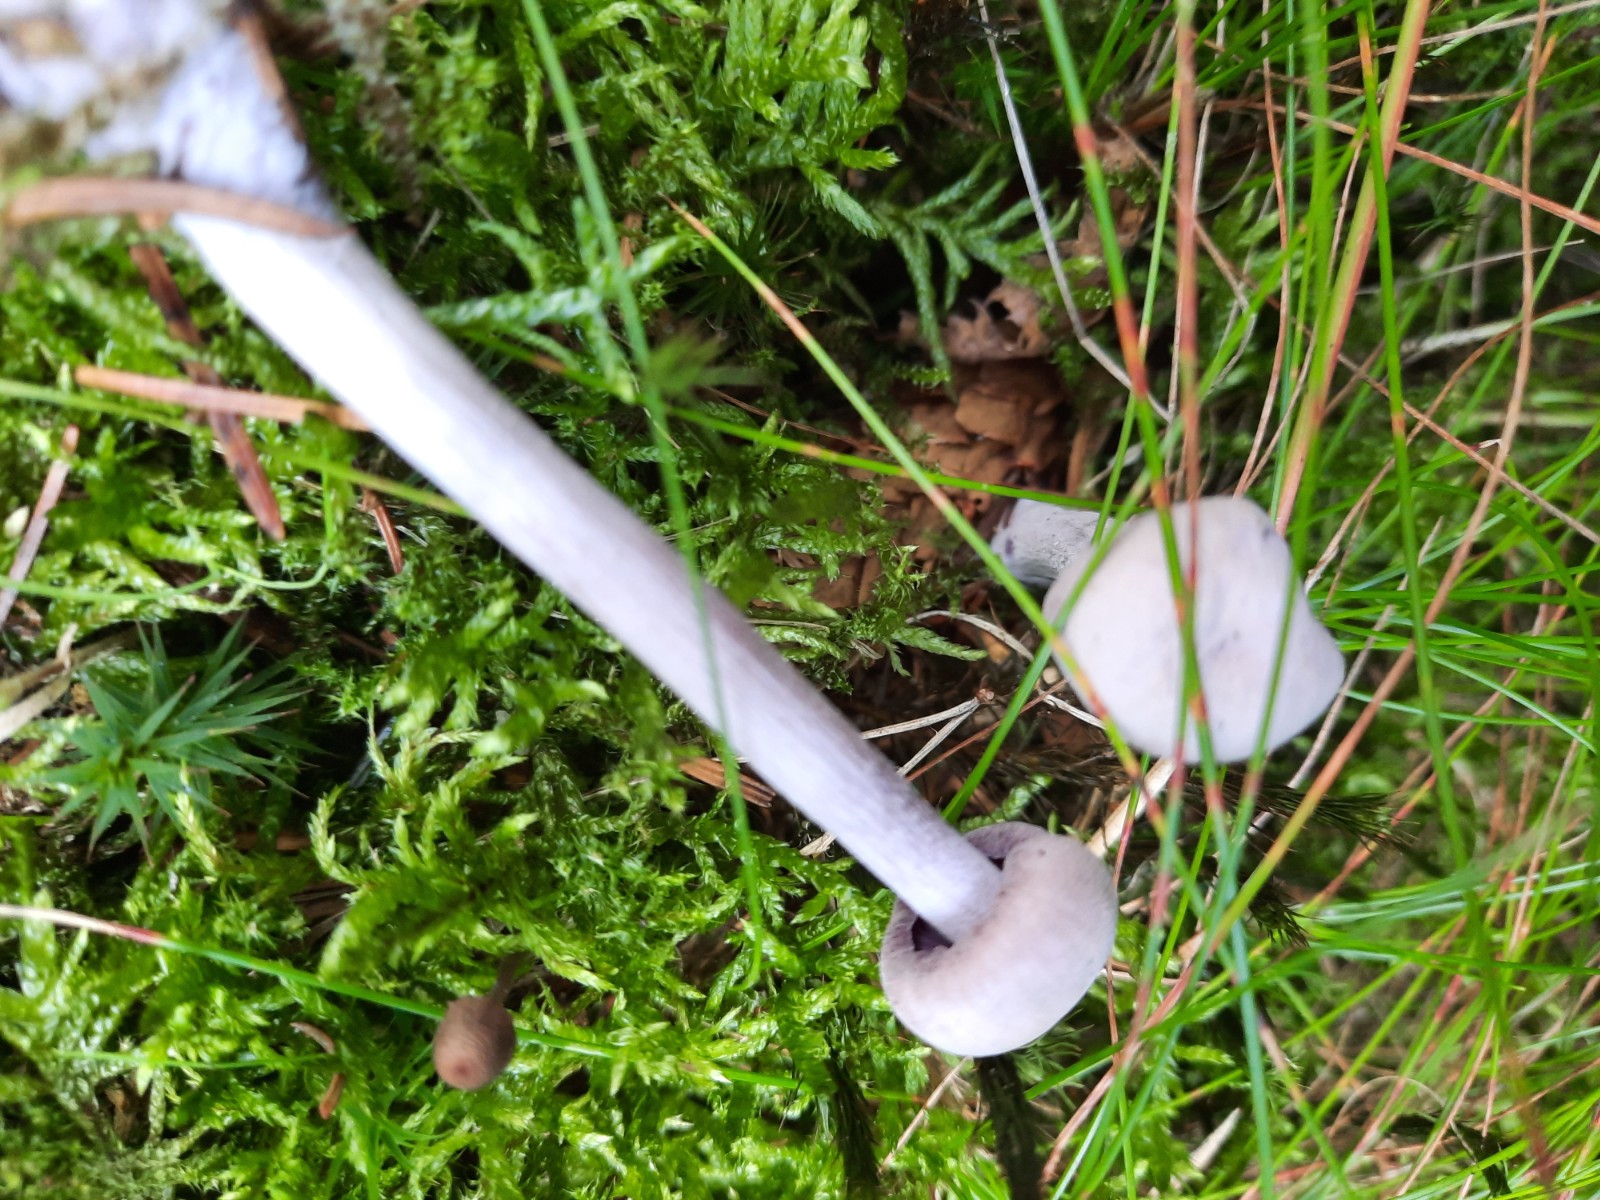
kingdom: Fungi
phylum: Basidiomycota
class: Agaricomycetes
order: Agaricales
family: Hydnangiaceae
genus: Laccaria
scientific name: Laccaria amethystina
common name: violet ametysthat
